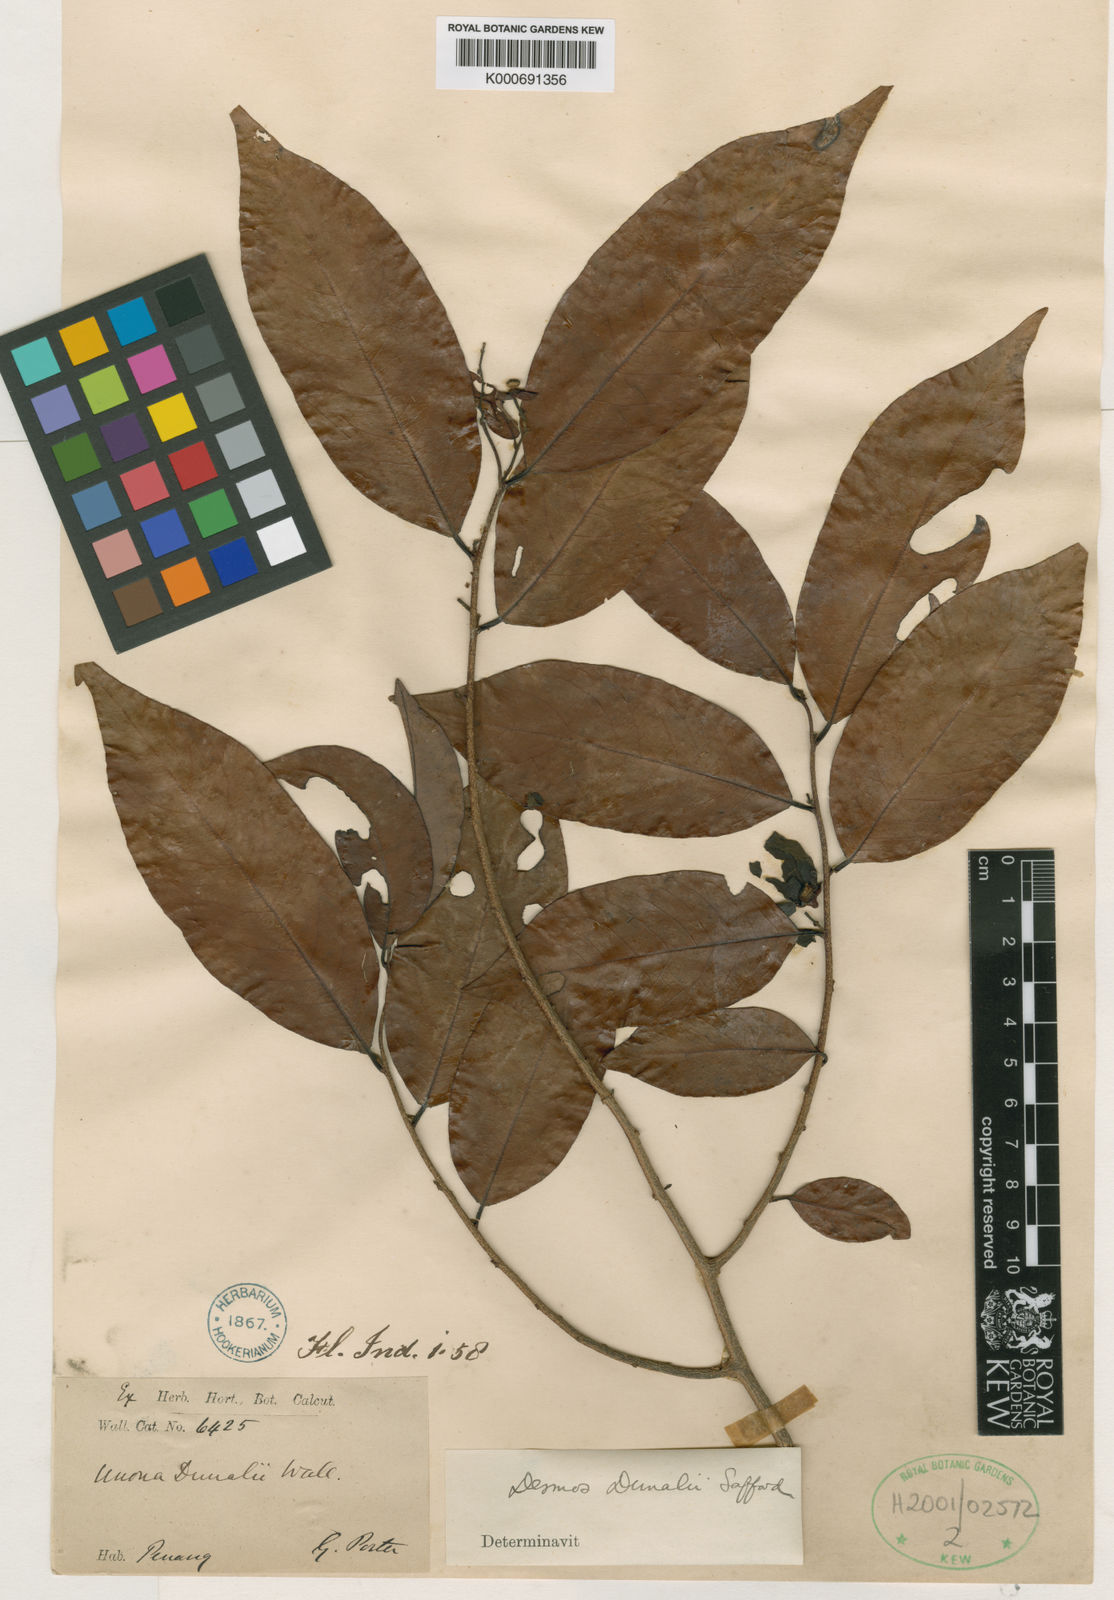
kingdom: Plantae
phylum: Tracheophyta
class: Magnoliopsida
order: Magnoliales
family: Annonaceae
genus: Desmos
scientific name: Desmos dunalii
